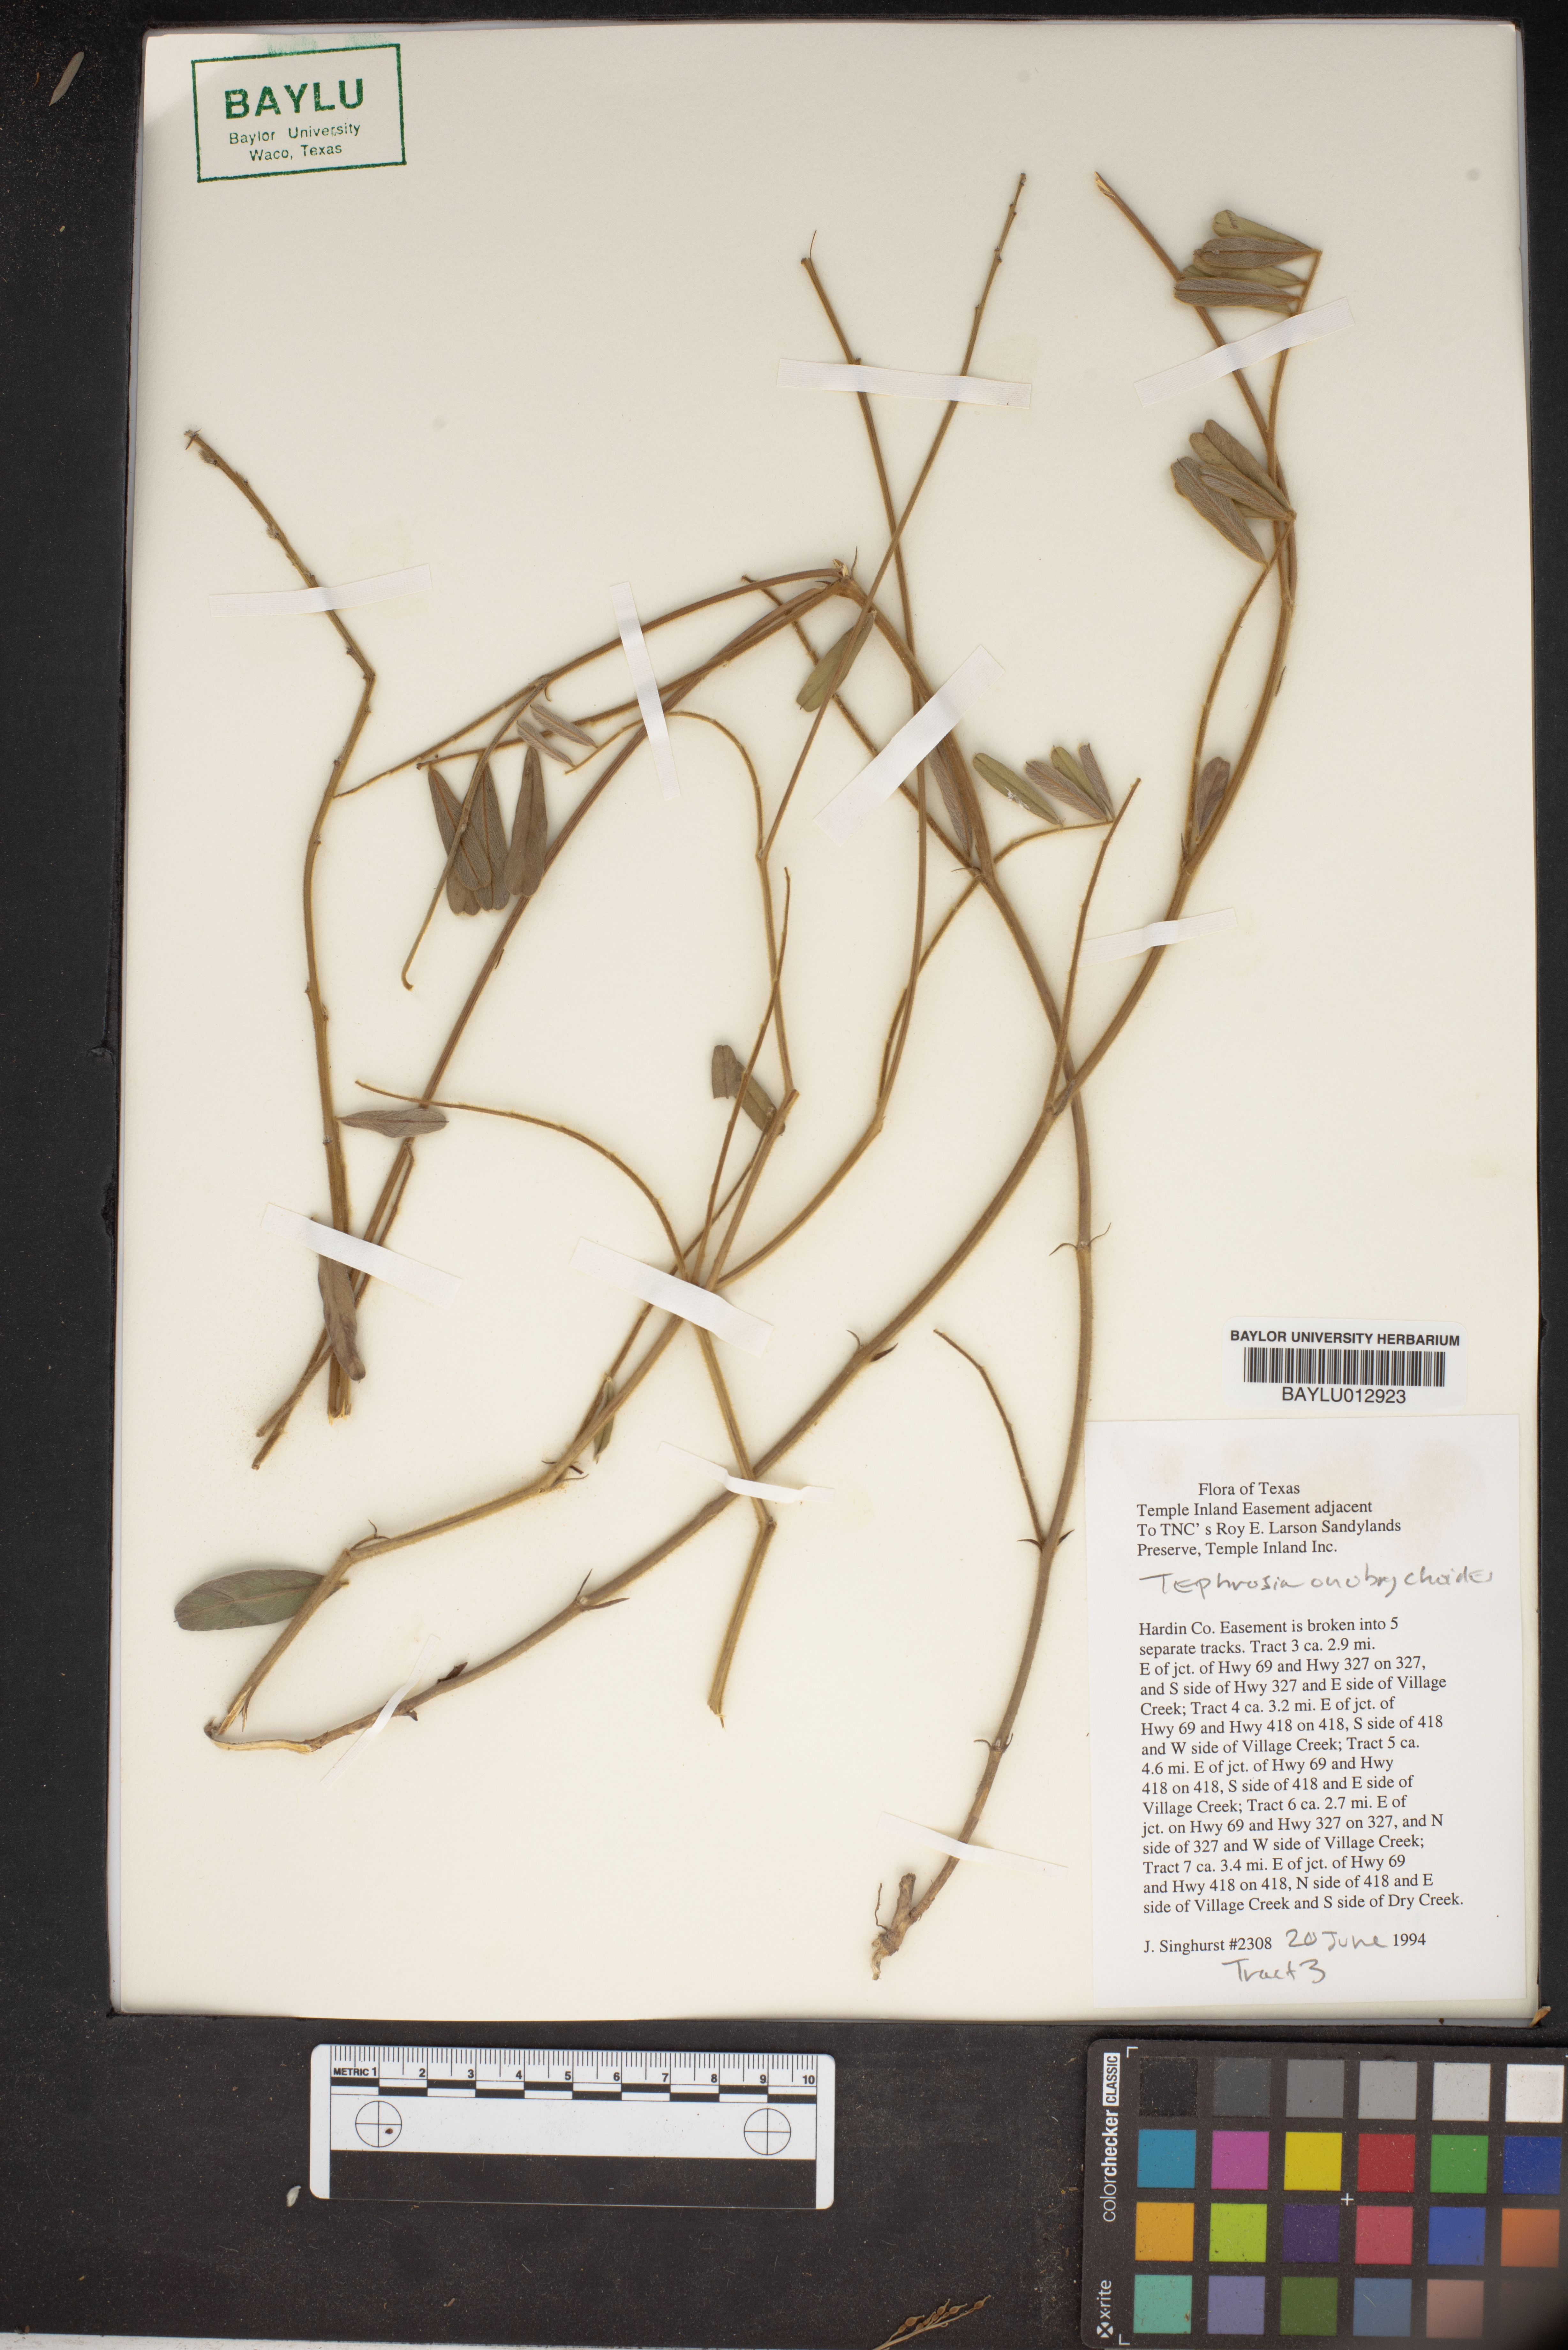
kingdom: Plantae
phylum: Tracheophyta
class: Magnoliopsida
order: Fabales
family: Fabaceae
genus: Tephrosia
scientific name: Tephrosia onobrychoides
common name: Multi-bloom hoary-pea
